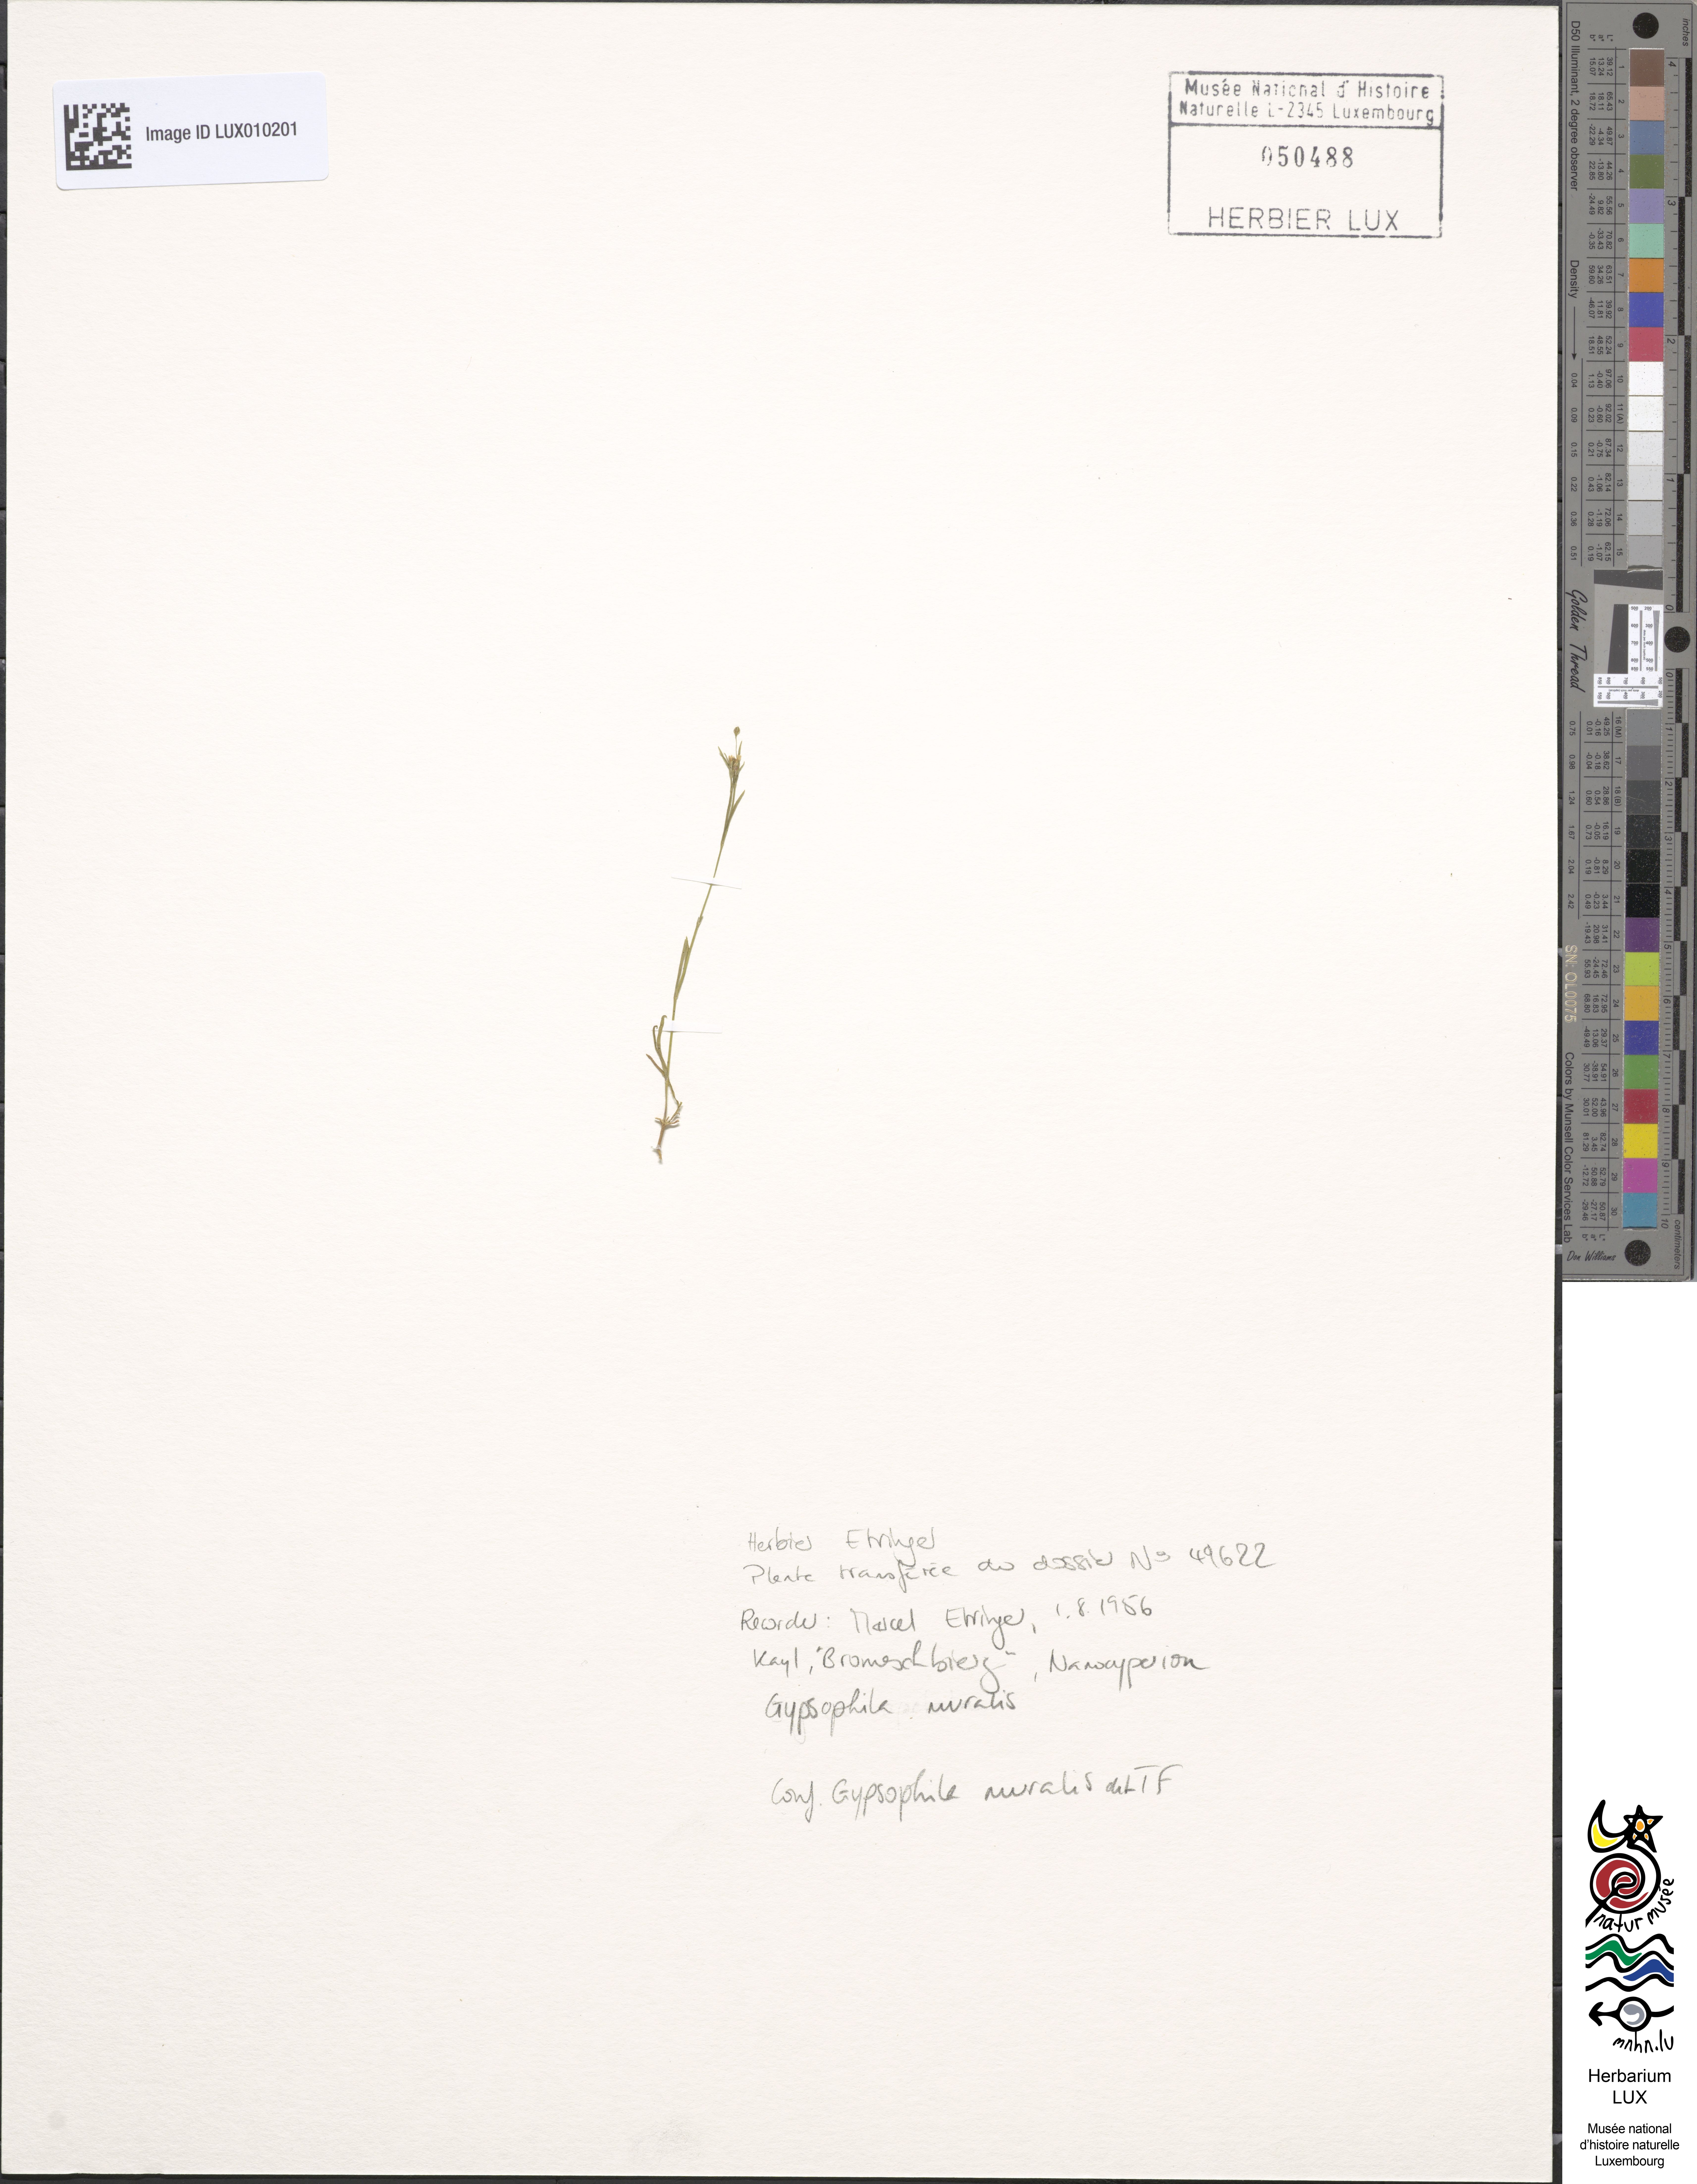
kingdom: Plantae
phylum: Tracheophyta
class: Magnoliopsida
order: Caryophyllales
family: Caryophyllaceae
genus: Psammophiliella
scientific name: Psammophiliella muralis
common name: Cushion baby's-breath
